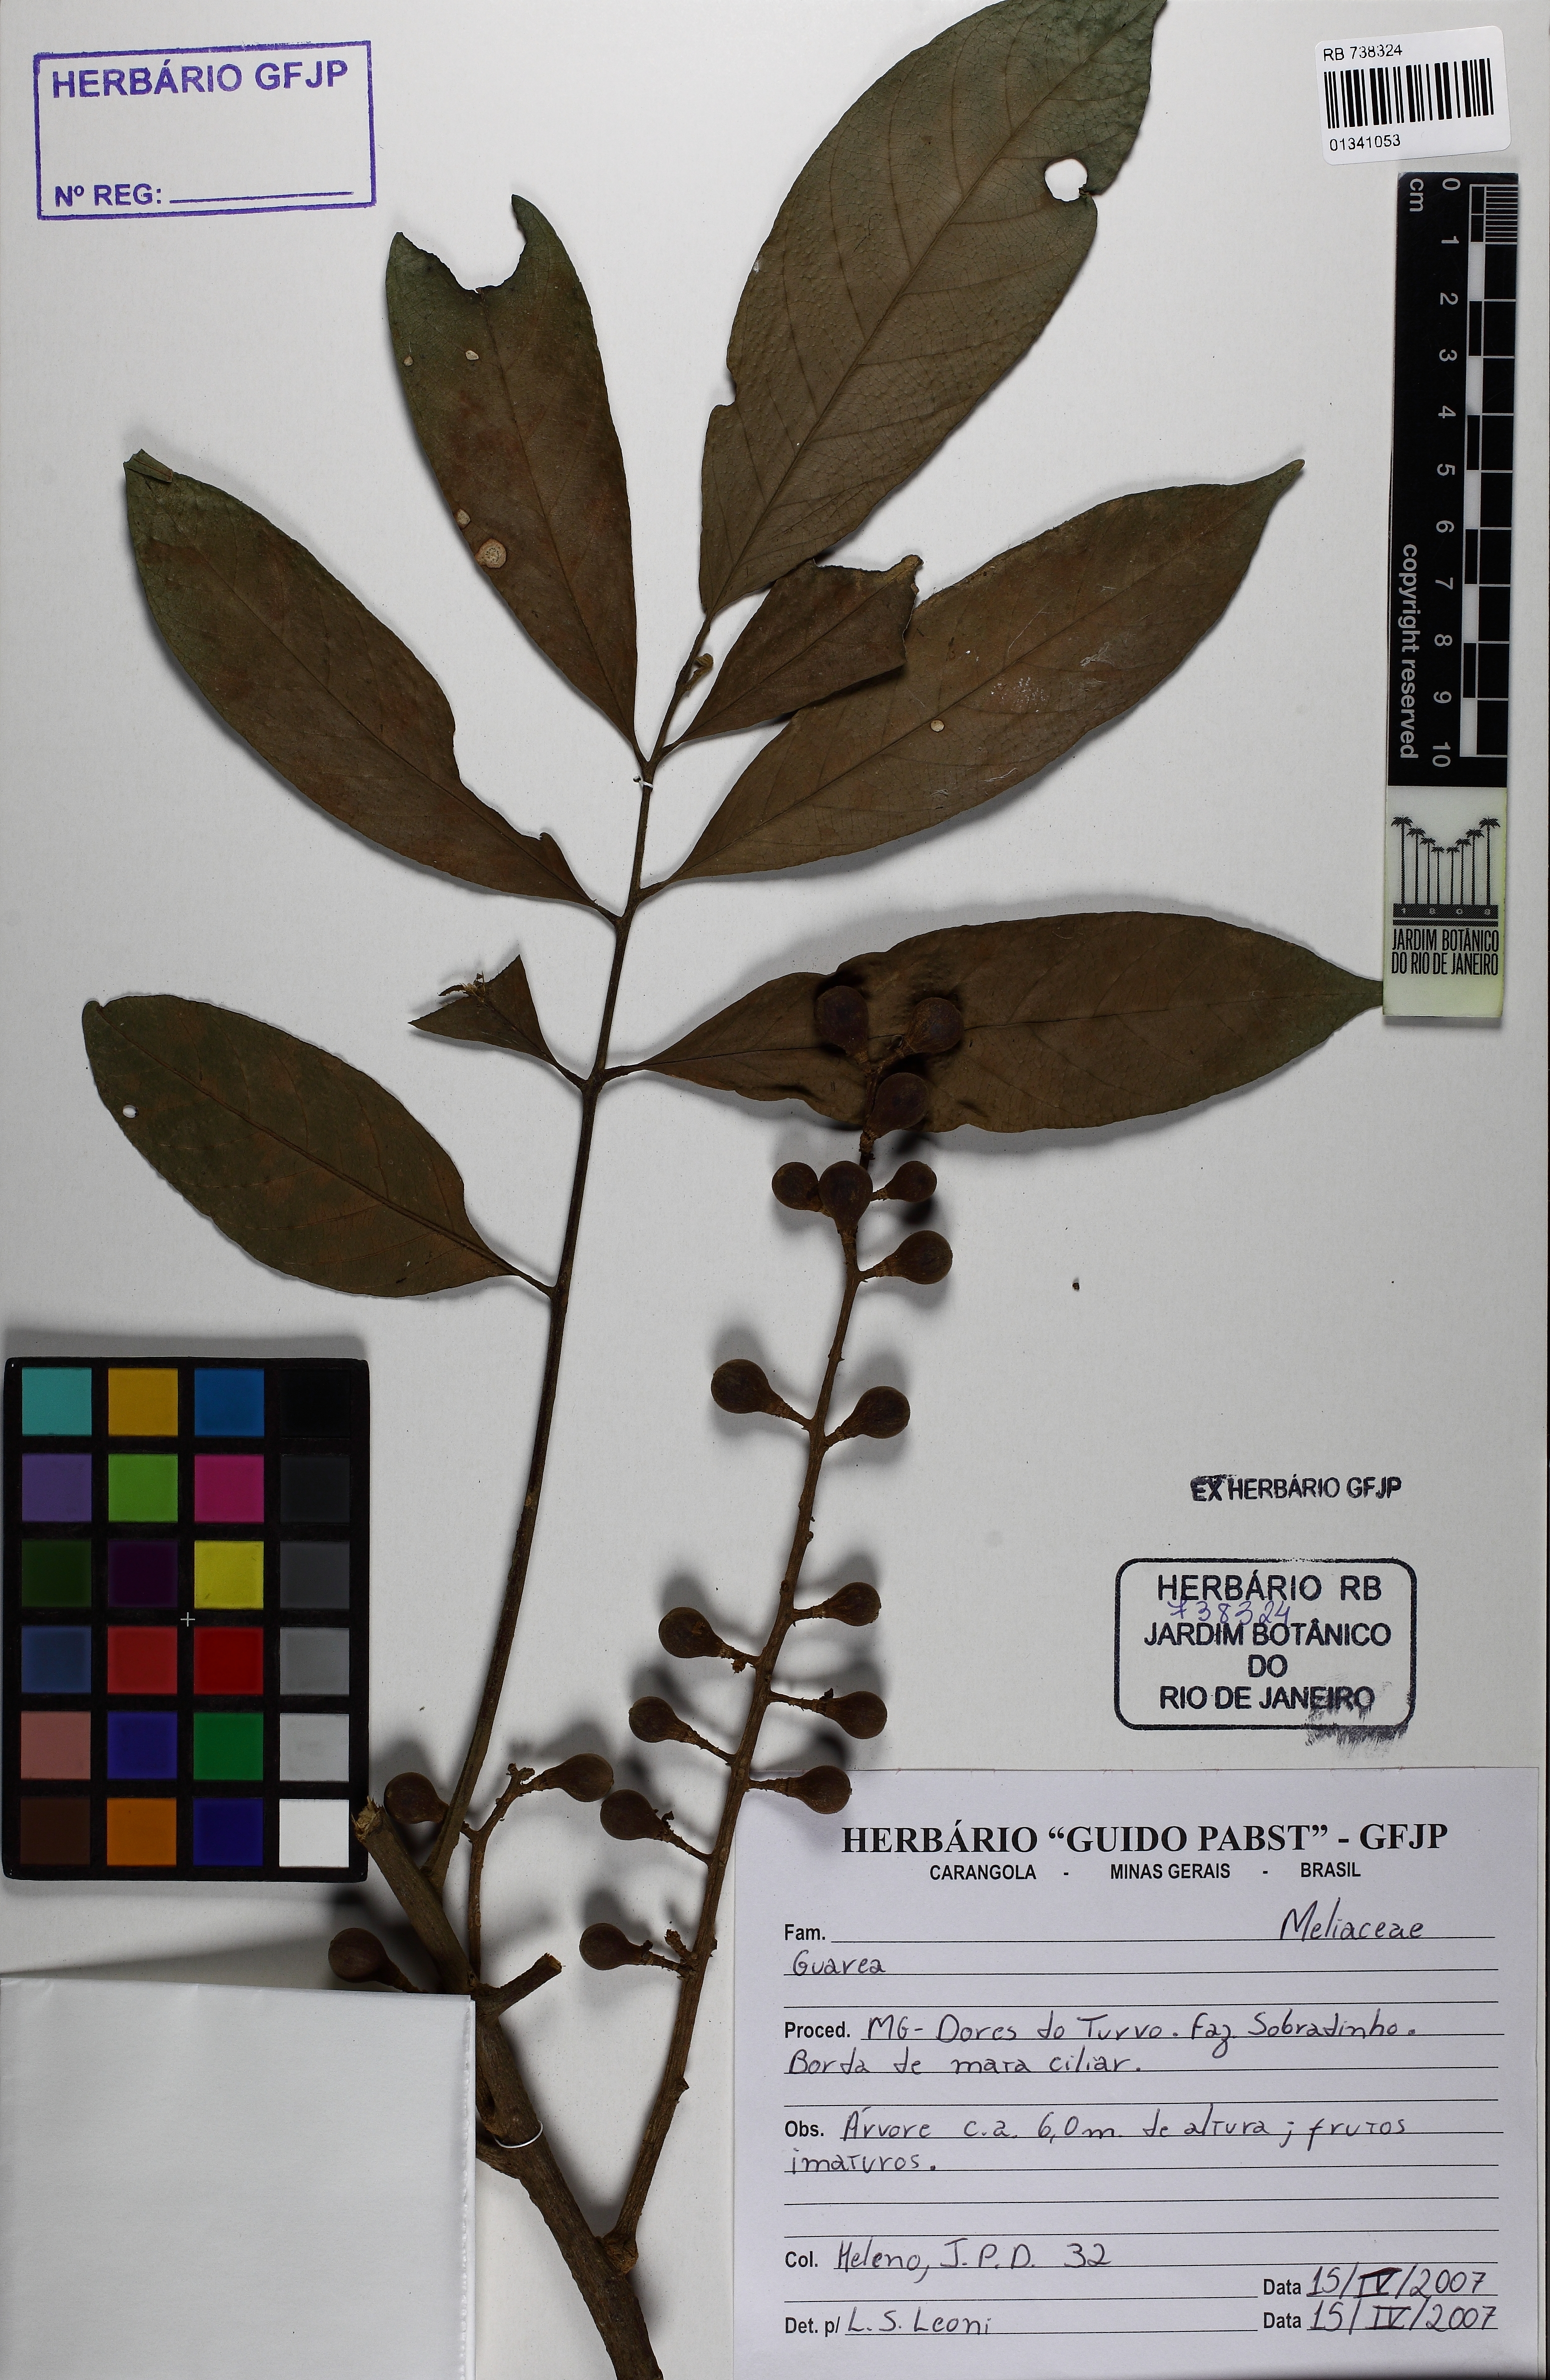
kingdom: Plantae
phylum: Tracheophyta
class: Magnoliopsida
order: Sapindales
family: Meliaceae
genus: Guarea
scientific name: Guarea
